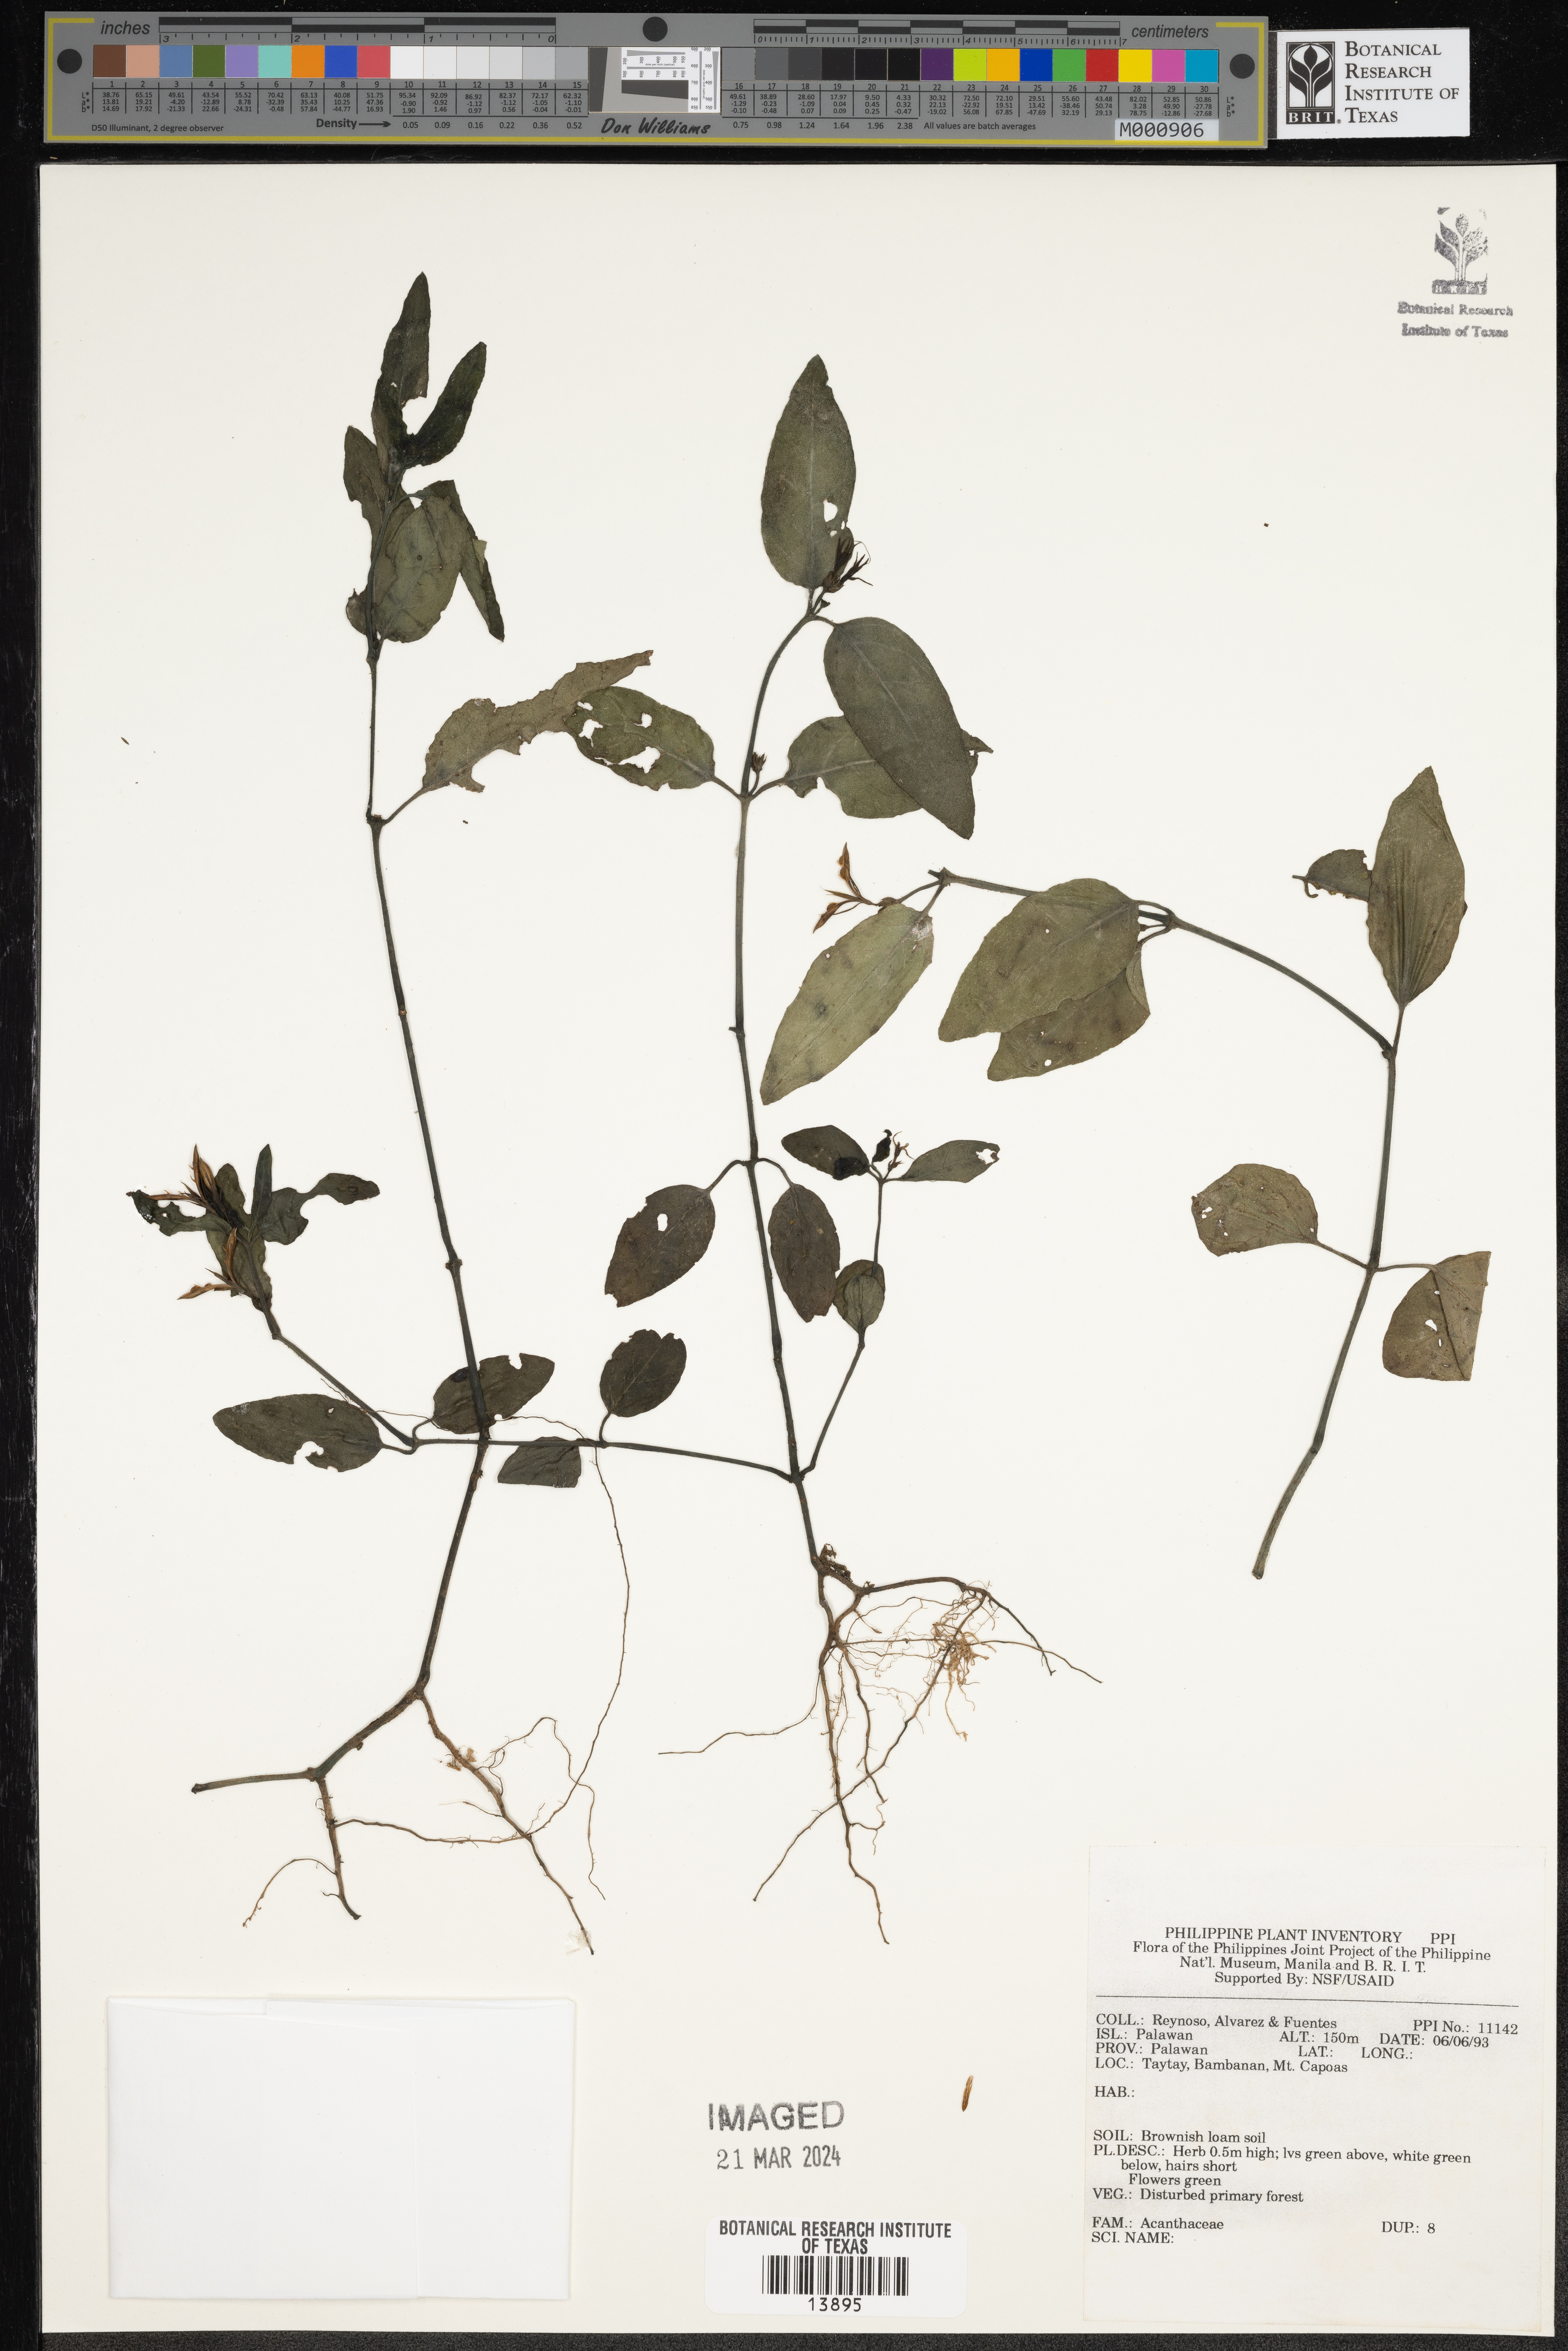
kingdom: Plantae
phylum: Tracheophyta
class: Magnoliopsida
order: Lamiales
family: Acanthaceae
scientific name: Acanthaceae
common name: Acanthaceae
